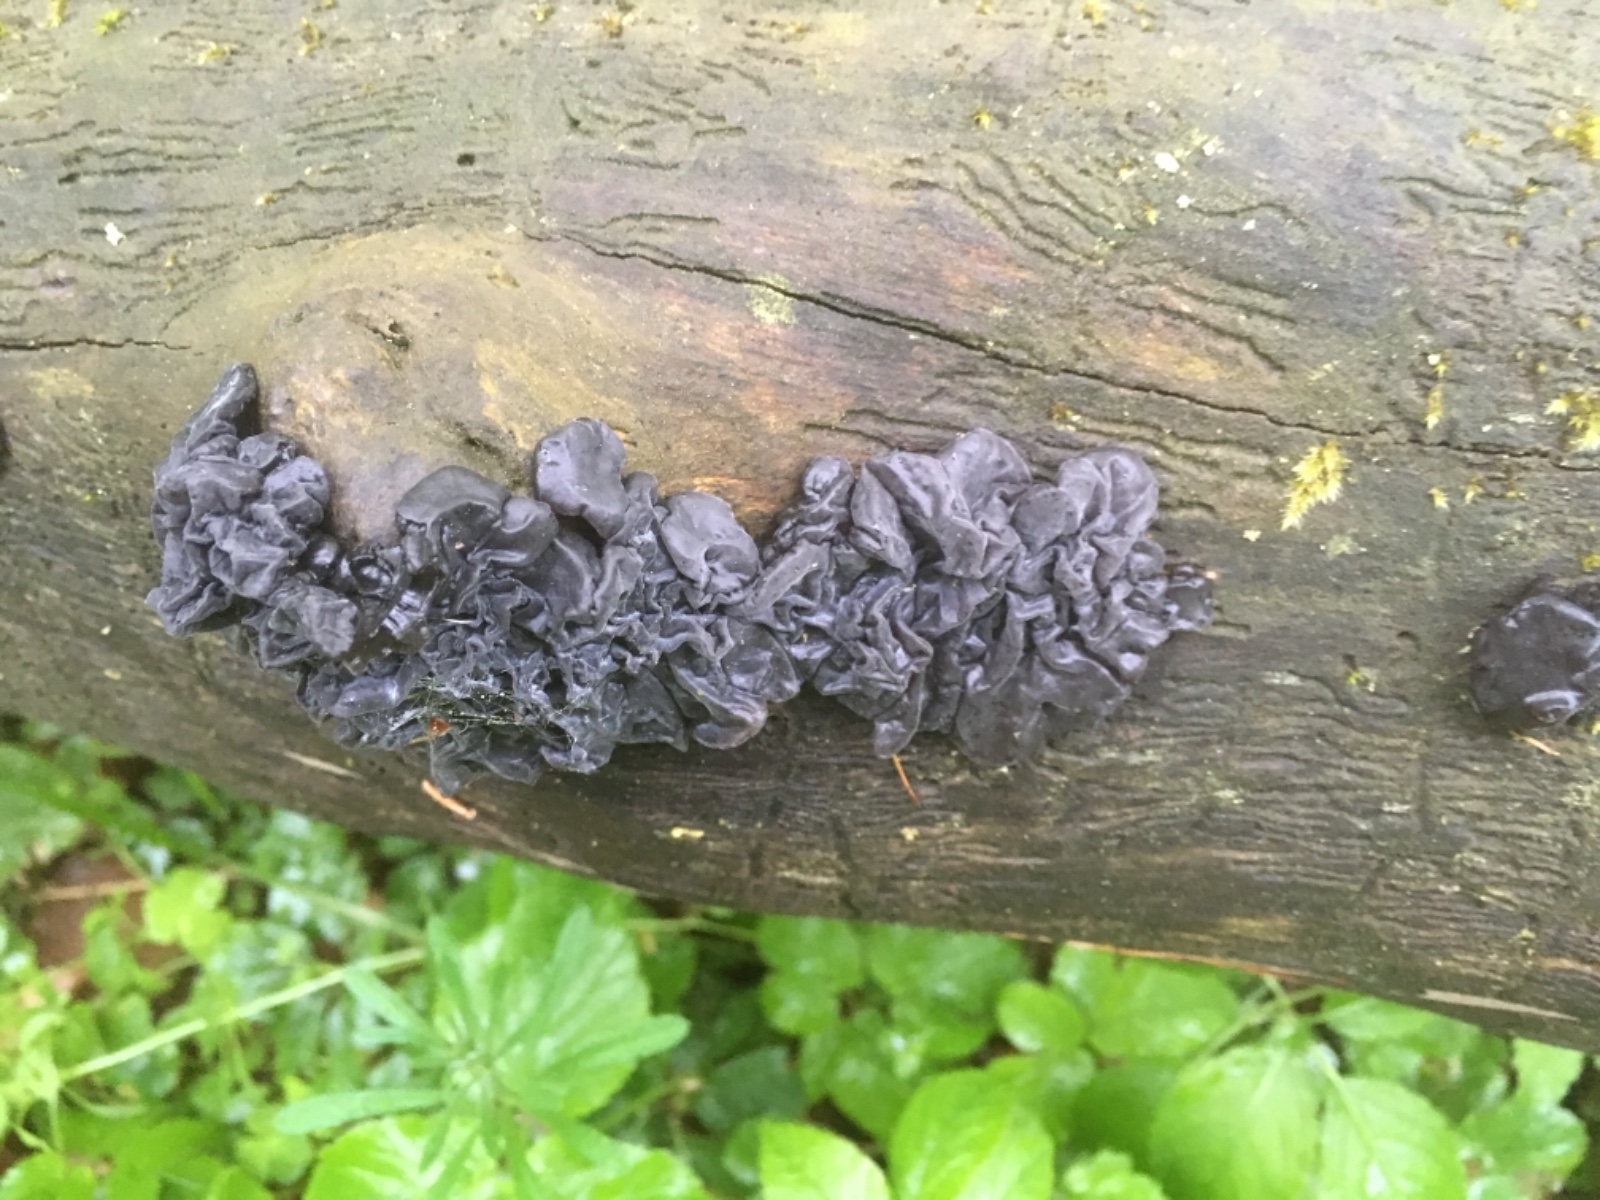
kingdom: Fungi
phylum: Basidiomycota
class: Agaricomycetes
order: Auriculariales
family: Auriculariaceae
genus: Exidia
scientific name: Exidia nigricans
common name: almindelig bævretop
